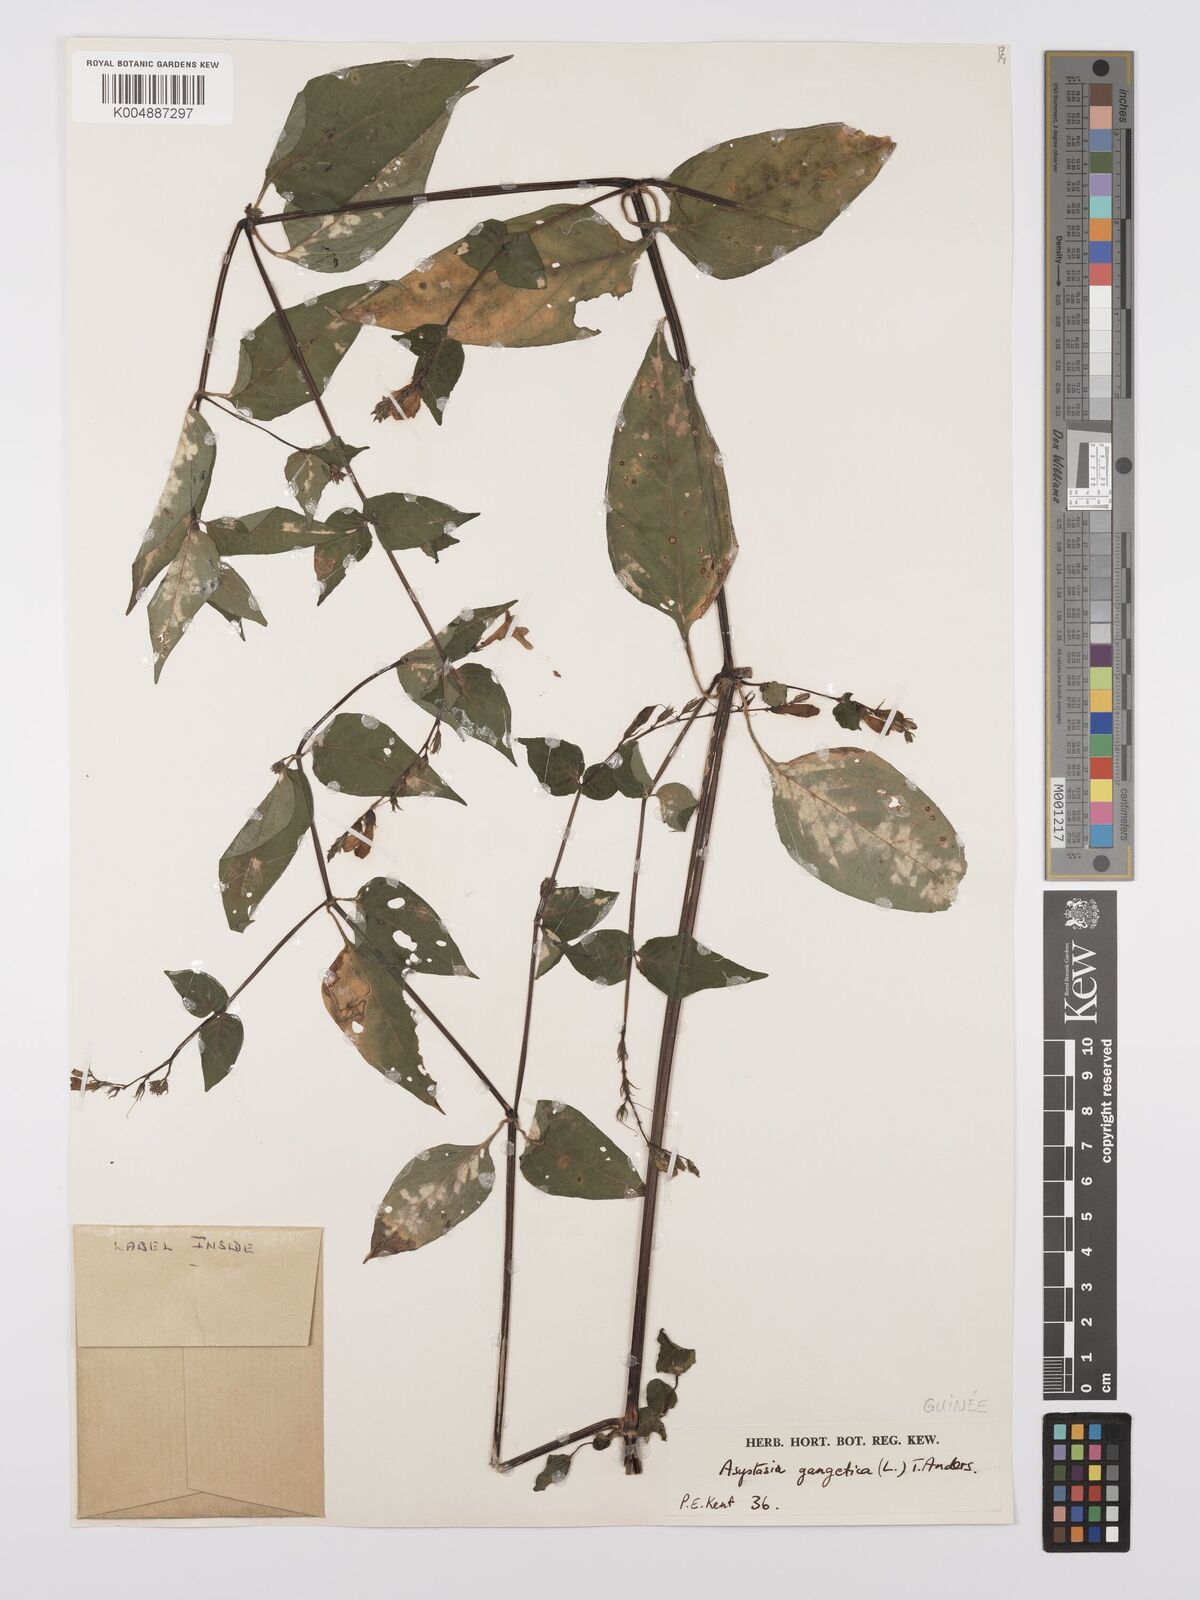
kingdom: Plantae
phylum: Tracheophyta
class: Magnoliopsida
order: Lamiales
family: Acanthaceae
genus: Asystasia
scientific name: Asystasia gangetica
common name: Chinese violet
